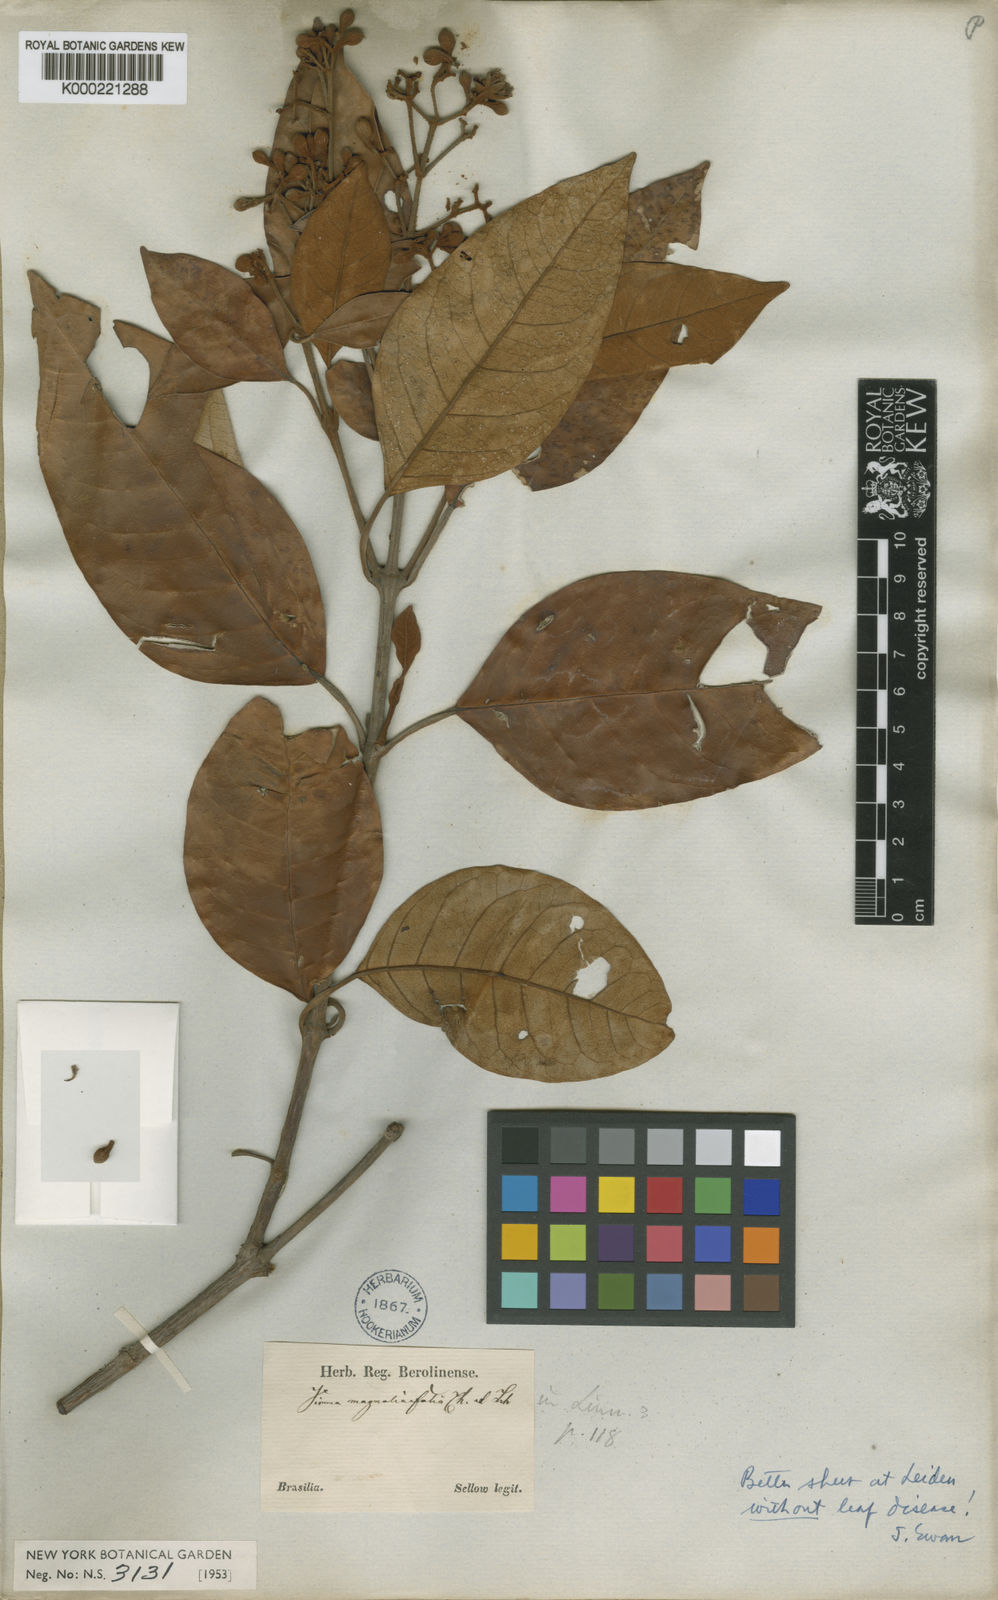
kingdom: Plantae
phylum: Tracheophyta
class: Magnoliopsida
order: Malpighiales
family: Hypericaceae
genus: Vismia
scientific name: Vismia magnoliifolia
